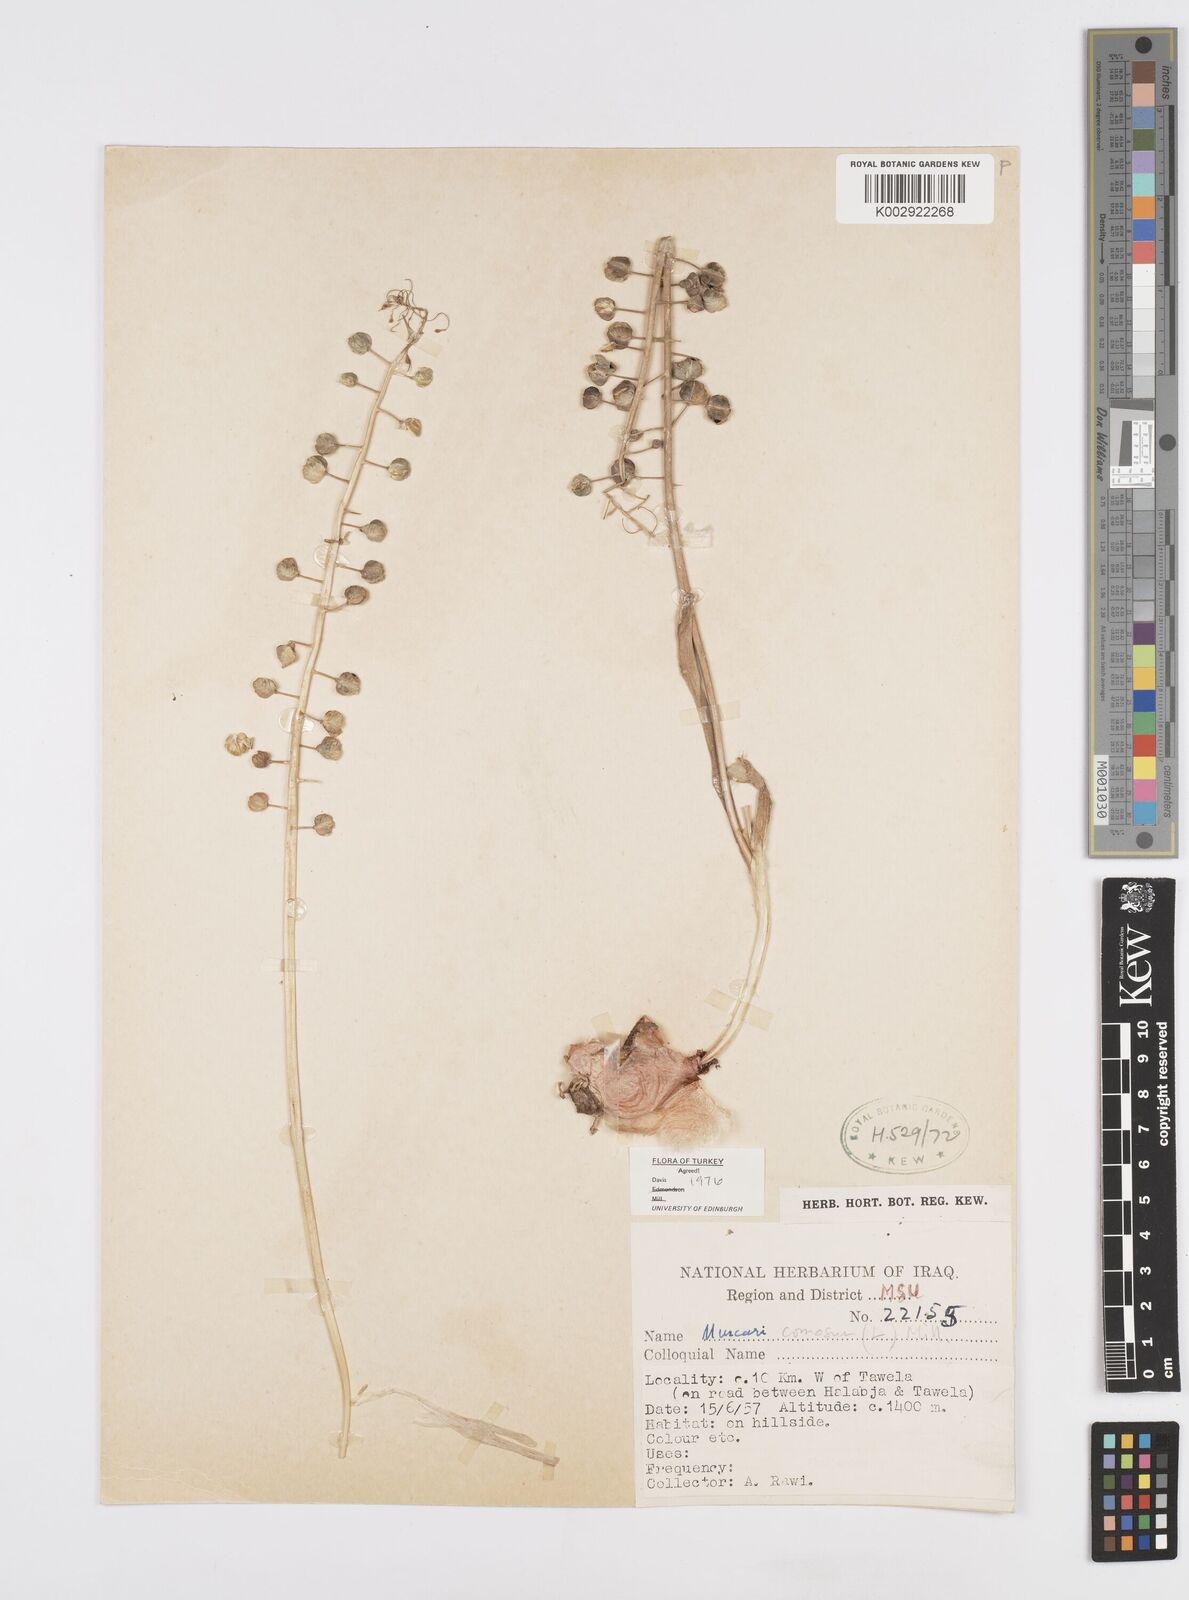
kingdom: Plantae
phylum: Tracheophyta
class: Liliopsida
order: Asparagales
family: Asparagaceae
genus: Muscari
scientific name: Muscari comosum
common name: Tassel hyacinth
